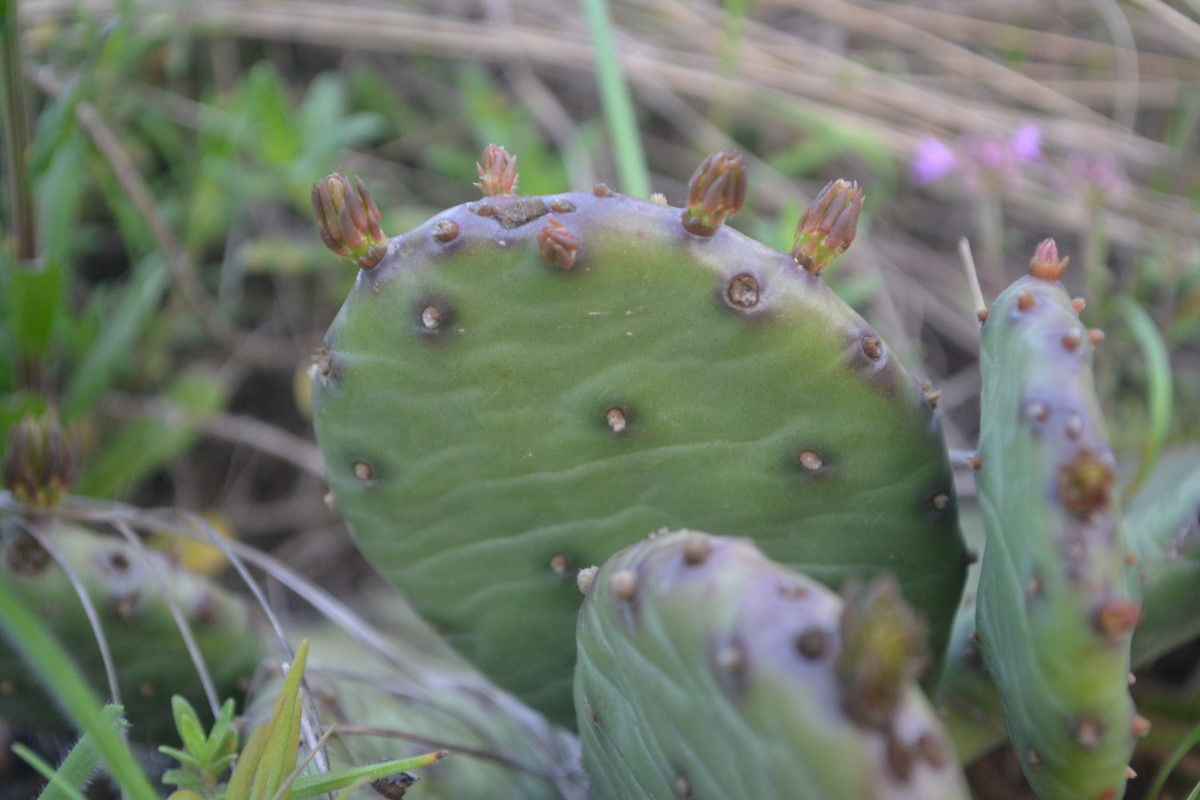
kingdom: Plantae
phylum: Tracheophyta
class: Magnoliopsida
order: Caryophyllales
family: Cactaceae
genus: Opuntia
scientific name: Opuntia
